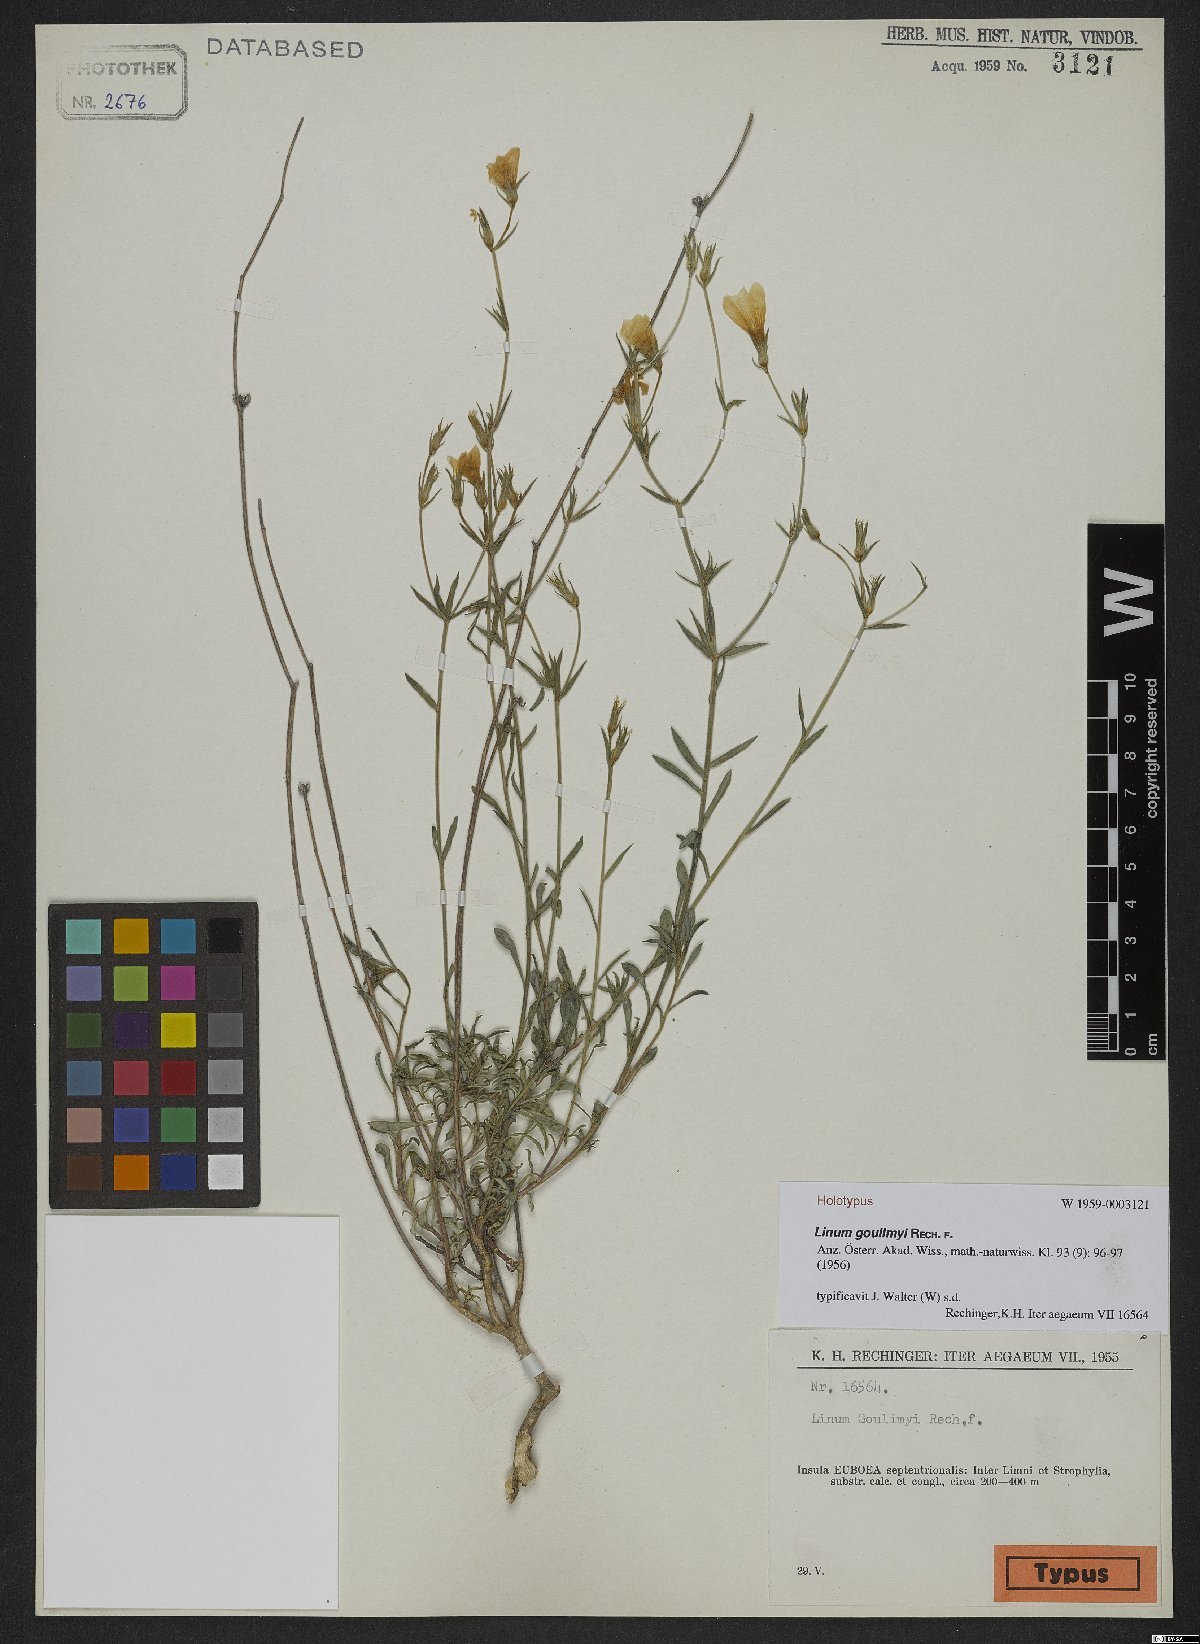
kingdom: Plantae
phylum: Tracheophyta
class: Magnoliopsida
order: Malpighiales
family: Linaceae
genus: Linum
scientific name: Linum goulimyi
